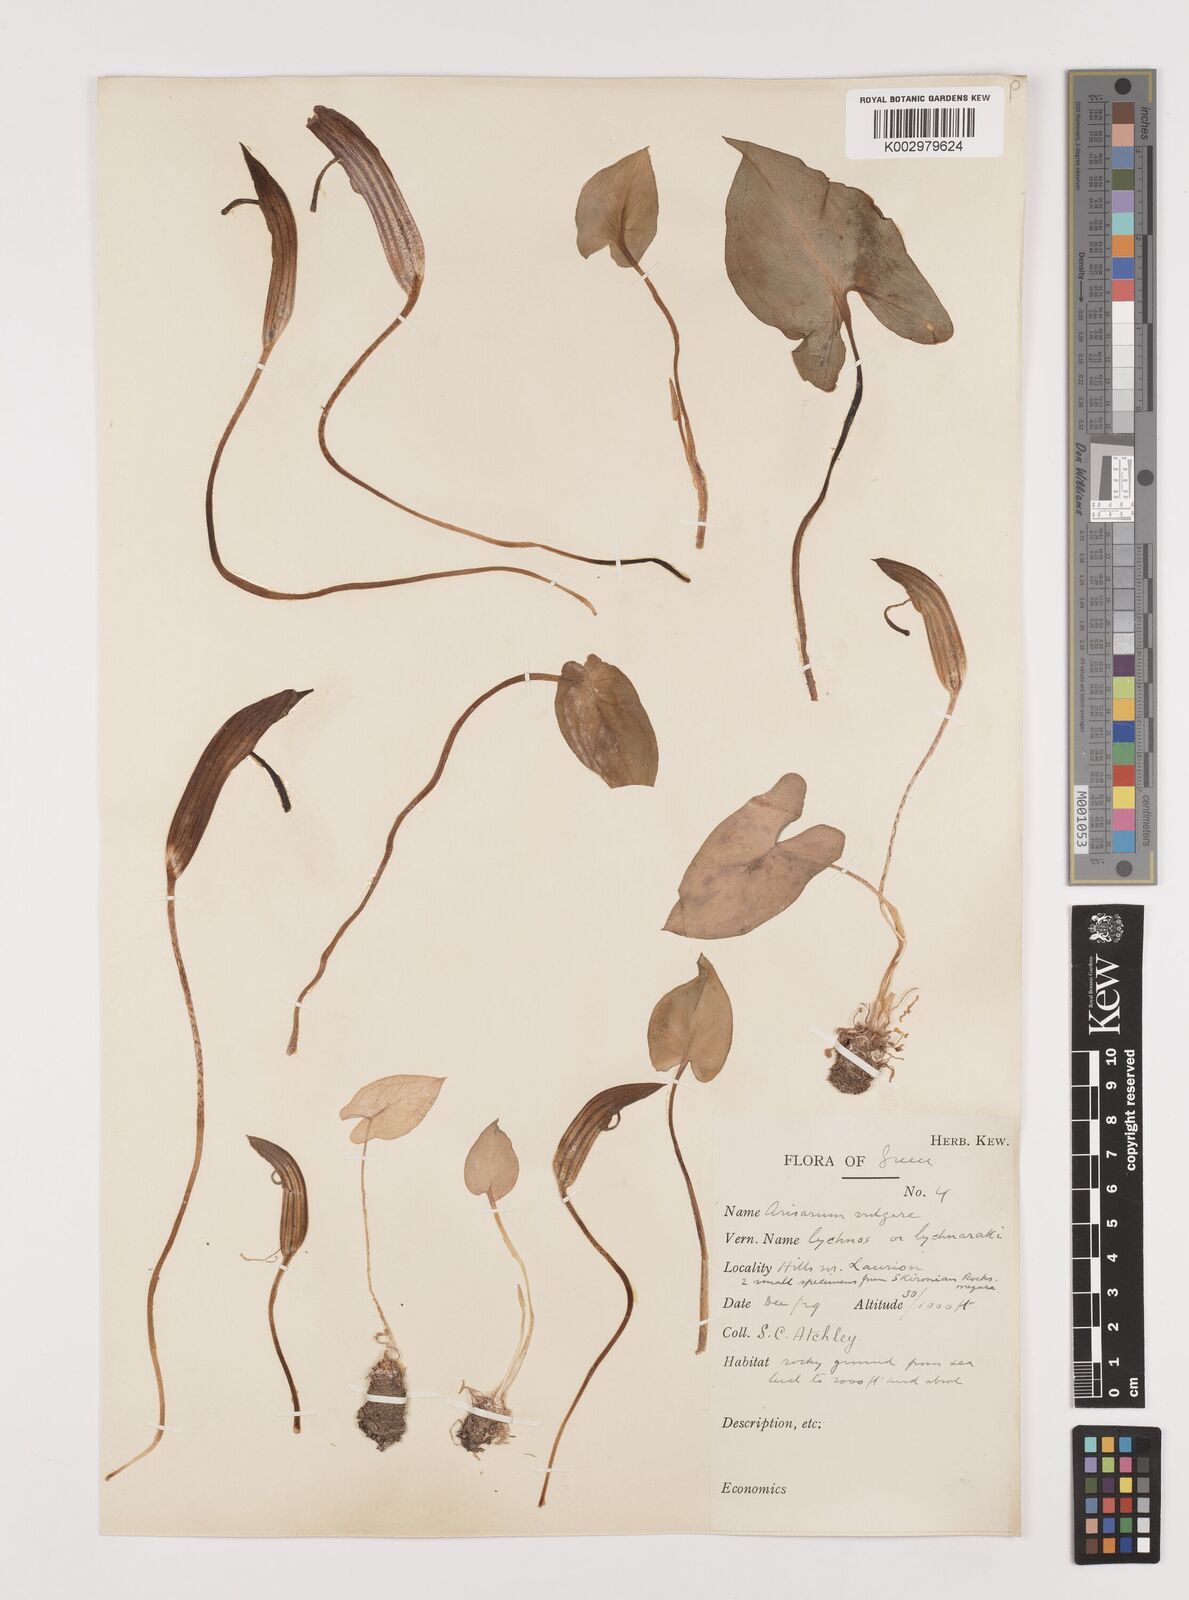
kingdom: Plantae
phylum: Tracheophyta
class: Liliopsida
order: Alismatales
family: Araceae
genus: Arisarum
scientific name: Arisarum vulgare
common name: Common arisarum
